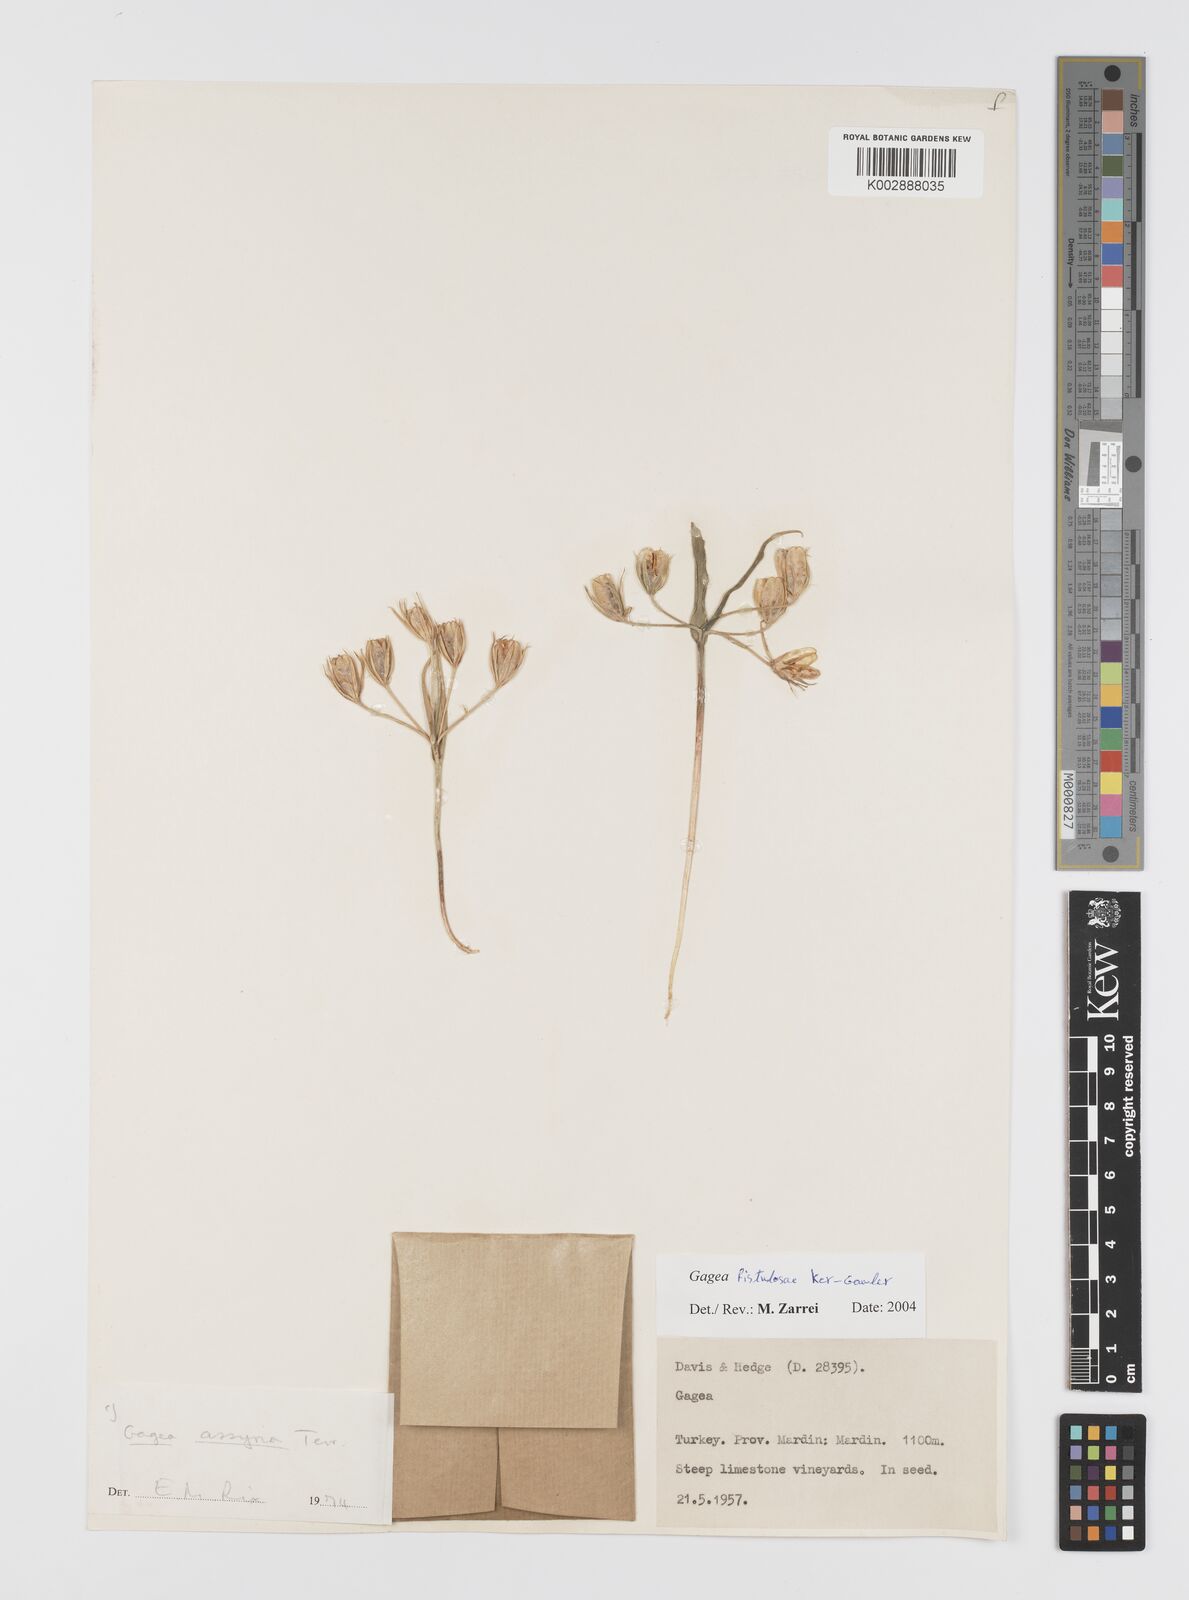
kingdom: Plantae
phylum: Tracheophyta
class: Liliopsida
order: Liliales
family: Liliaceae
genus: Gagea
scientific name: Gagea bohemica
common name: Early star-of-bethlehem
